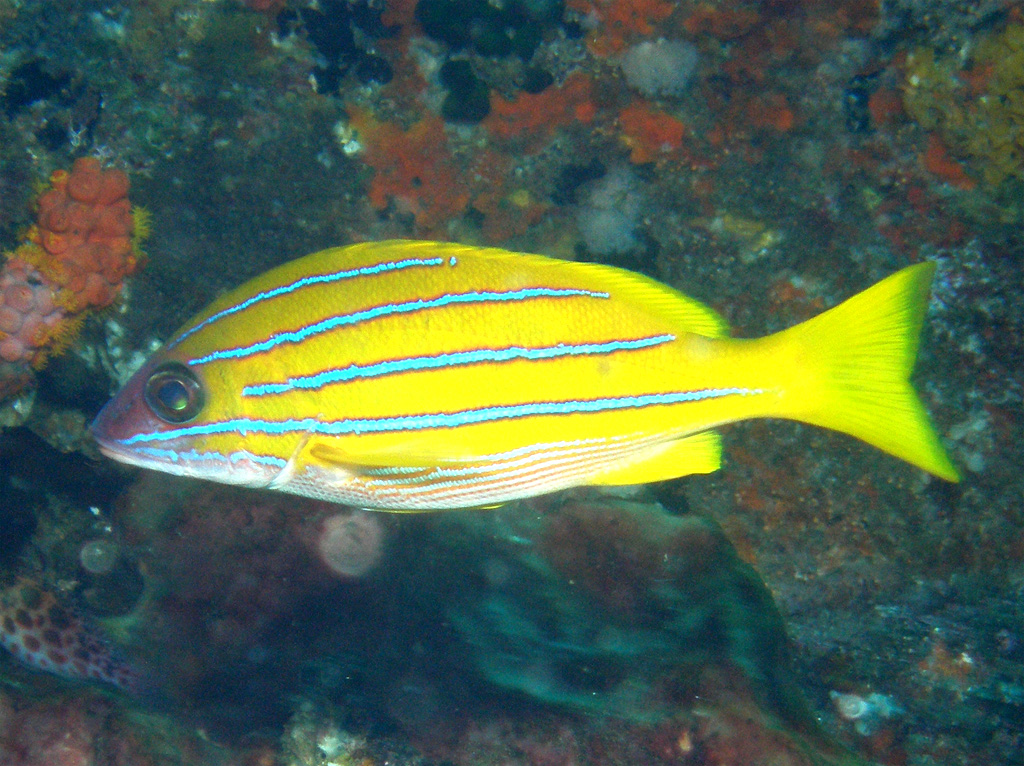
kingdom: Animalia
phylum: Chordata
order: Perciformes
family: Lutjanidae
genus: Lutjanus
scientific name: Lutjanus kasmira
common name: Common bluestripe snapper
